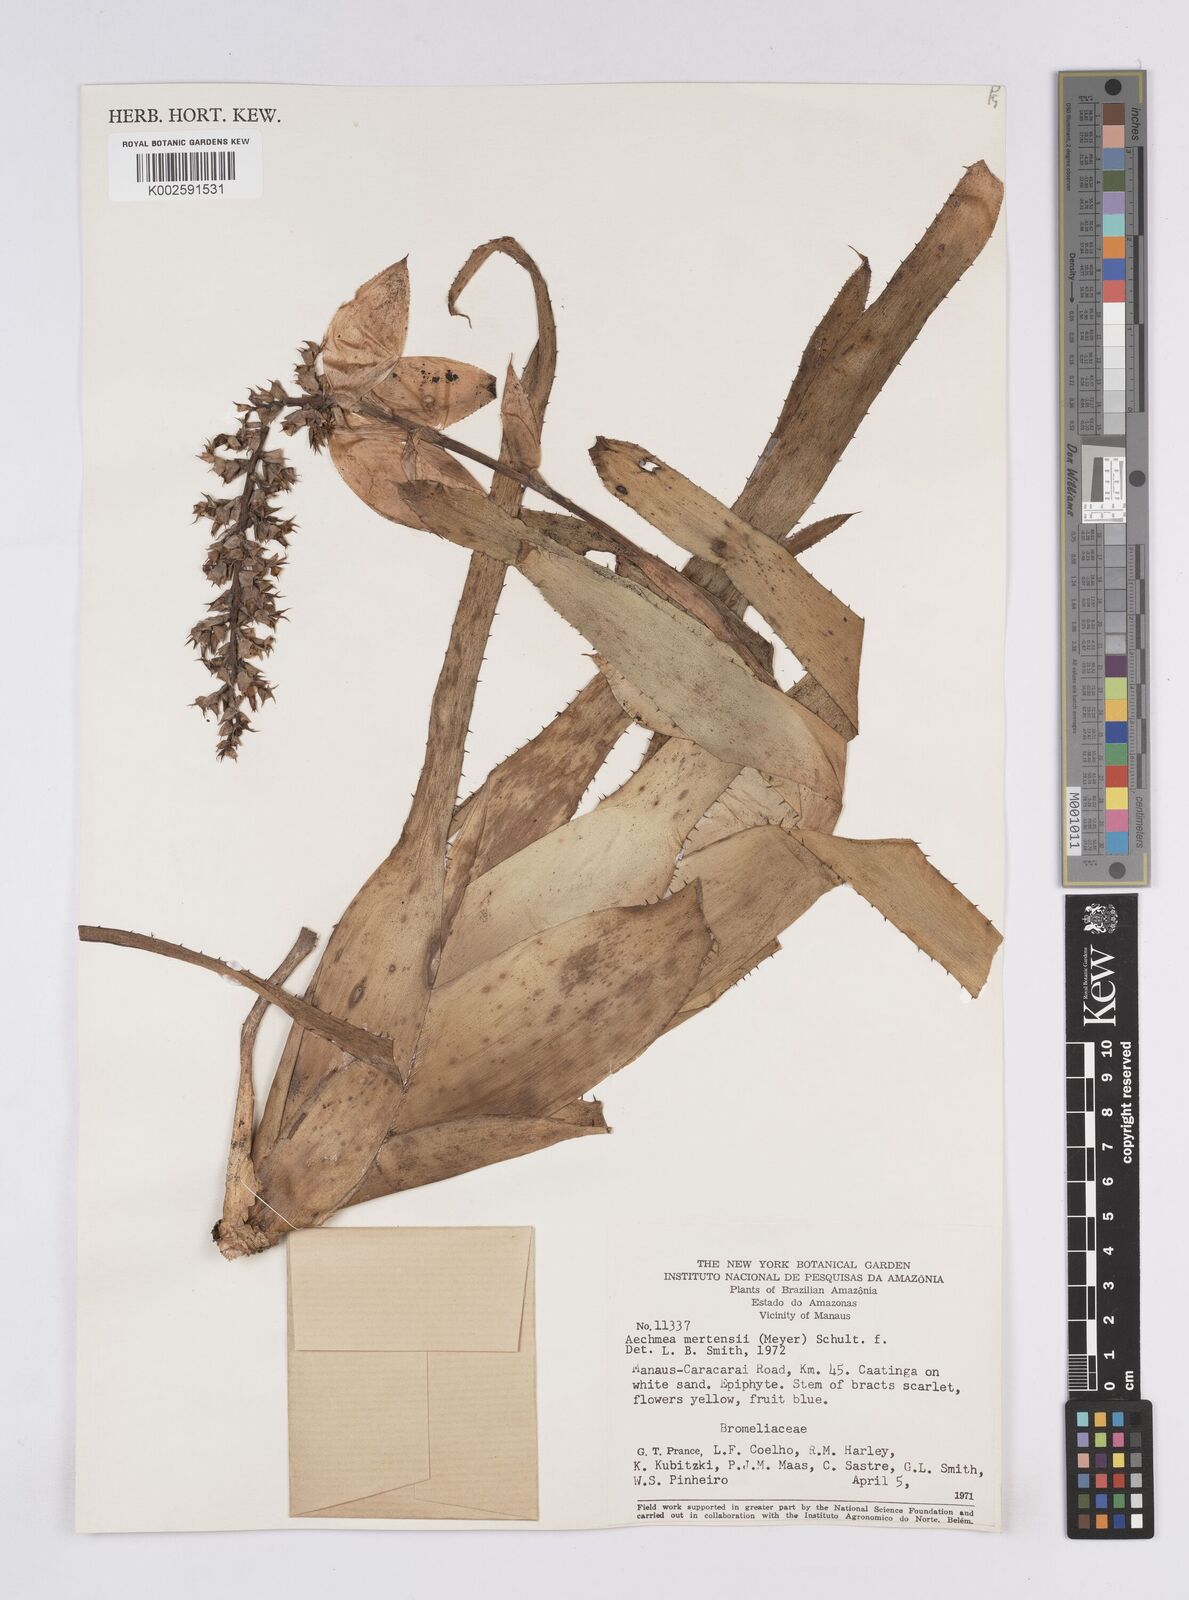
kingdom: Plantae
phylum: Tracheophyta
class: Liliopsida
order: Poales
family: Bromeliaceae
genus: Aechmea
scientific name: Aechmea mertensii
